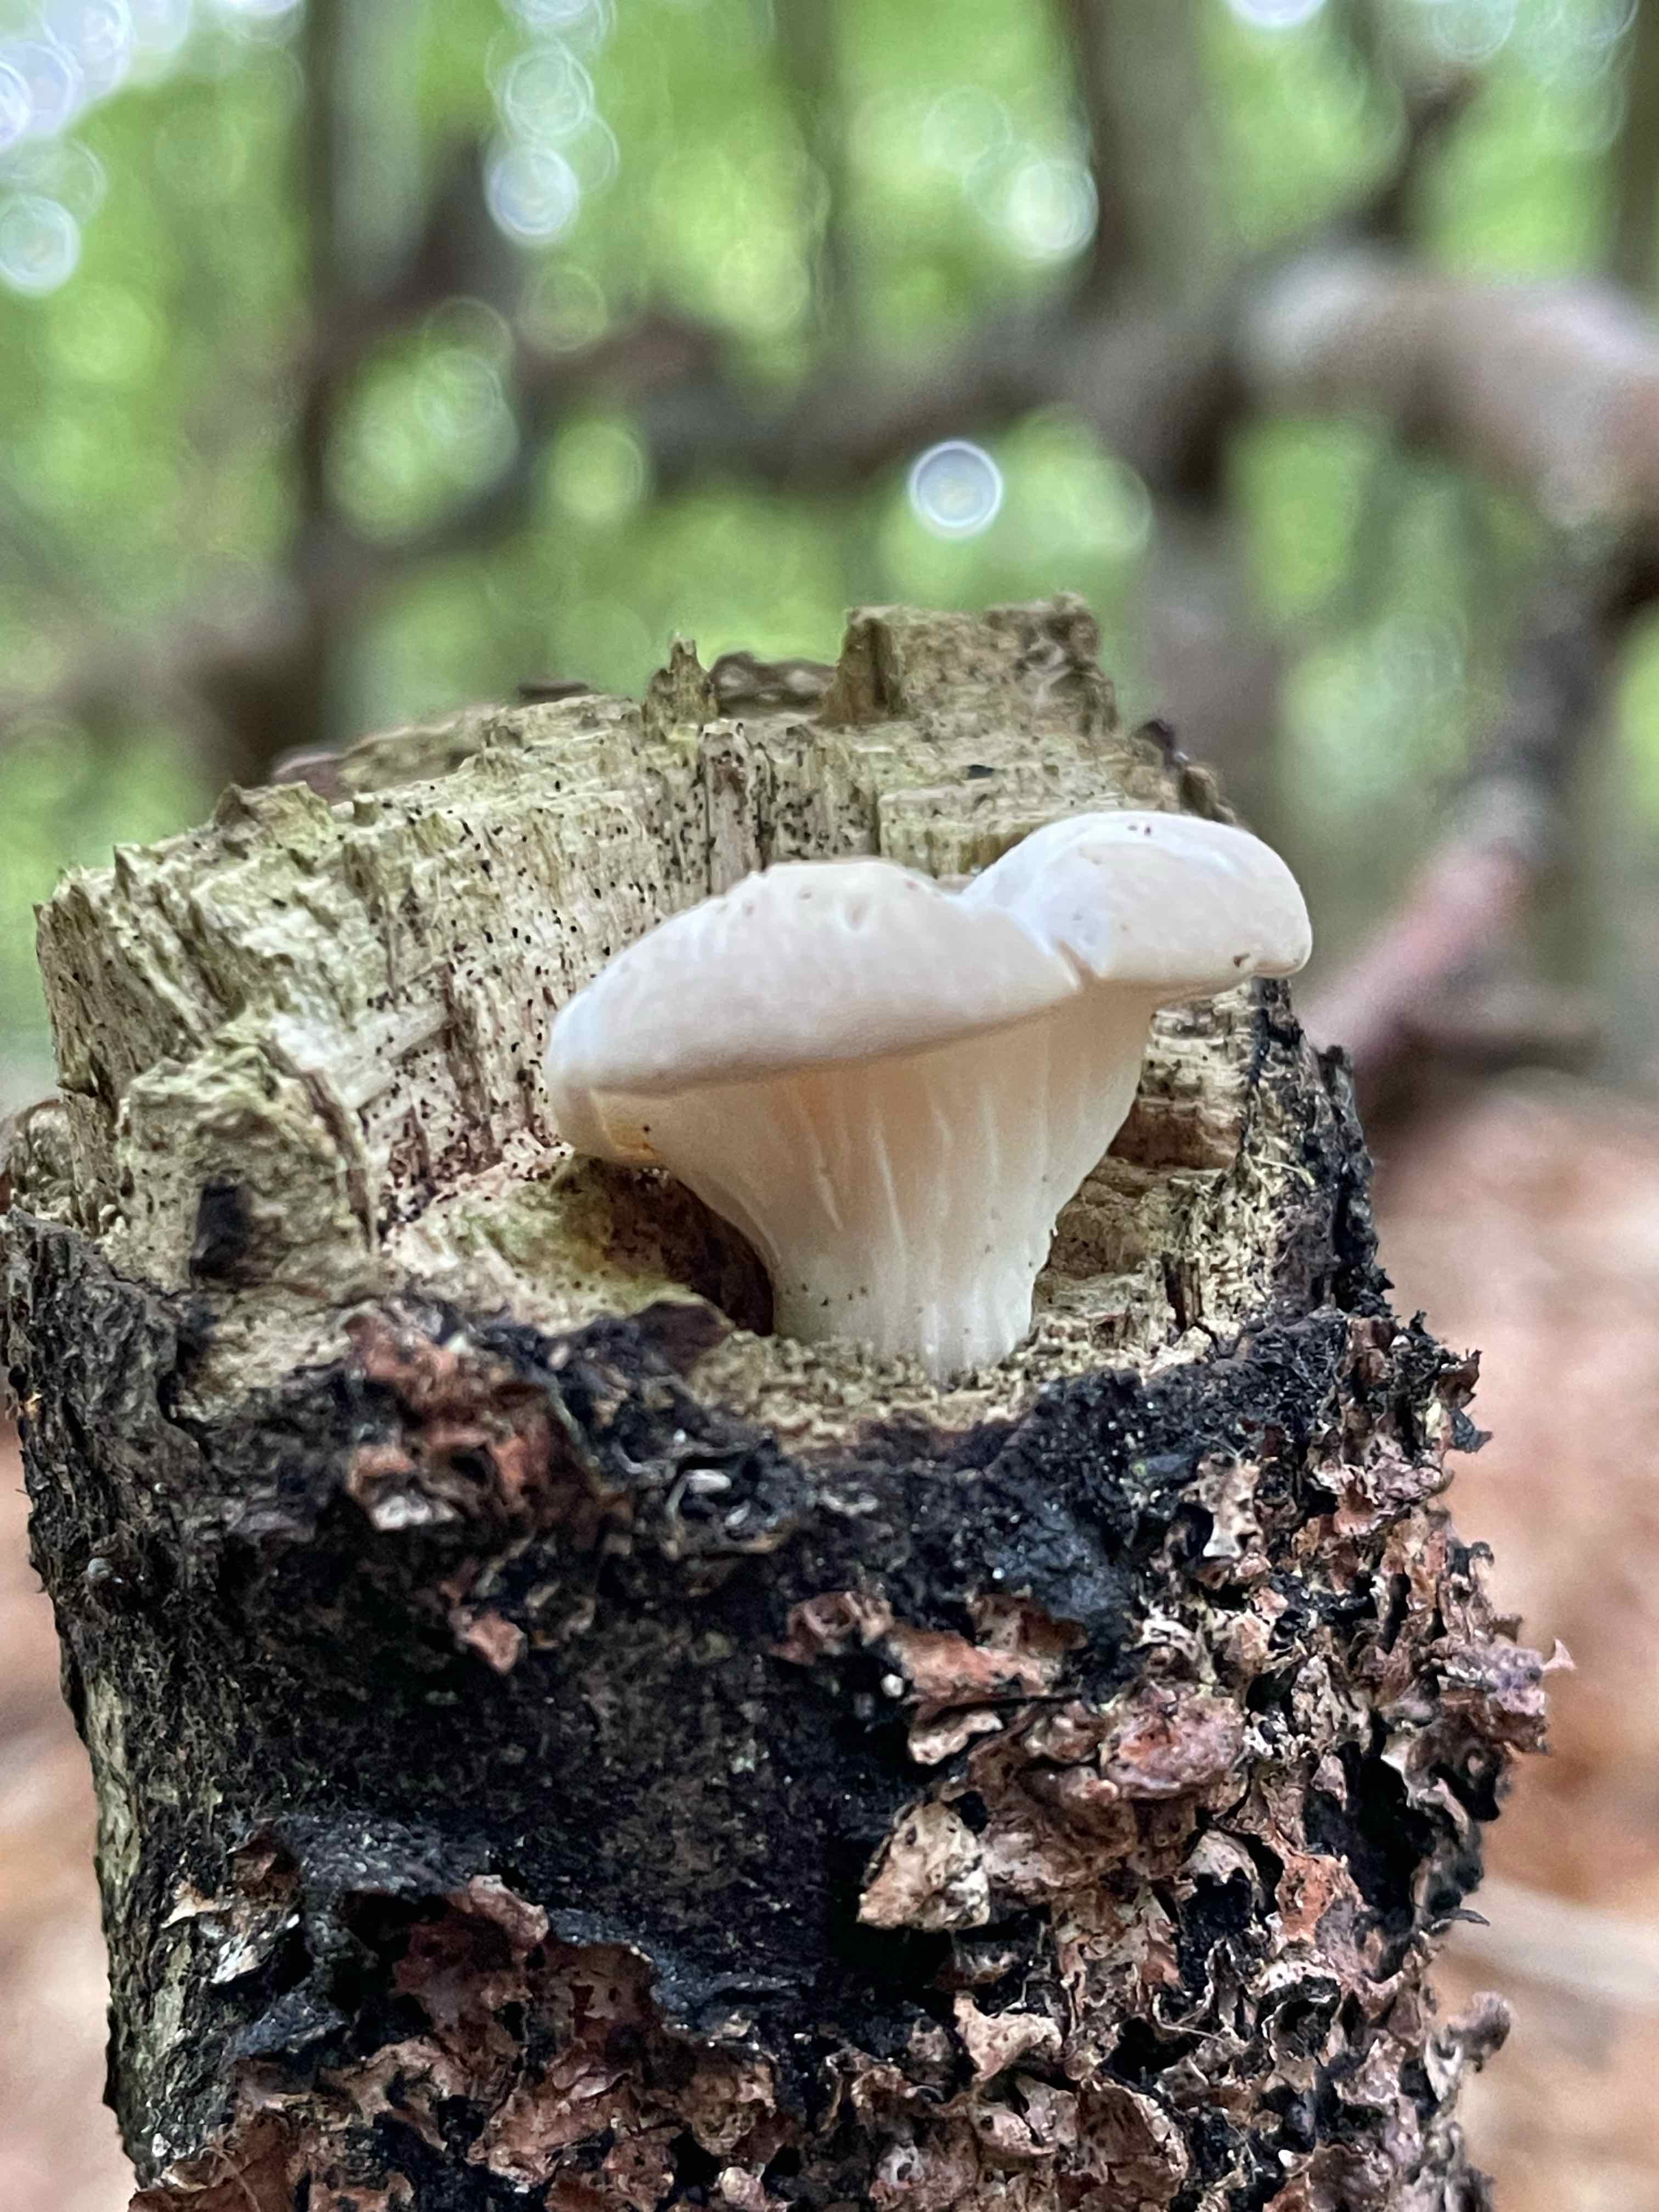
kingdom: Fungi
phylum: Basidiomycota
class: Agaricomycetes
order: Agaricales
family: Pleurotaceae
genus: Pleurotus
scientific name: Pleurotus
